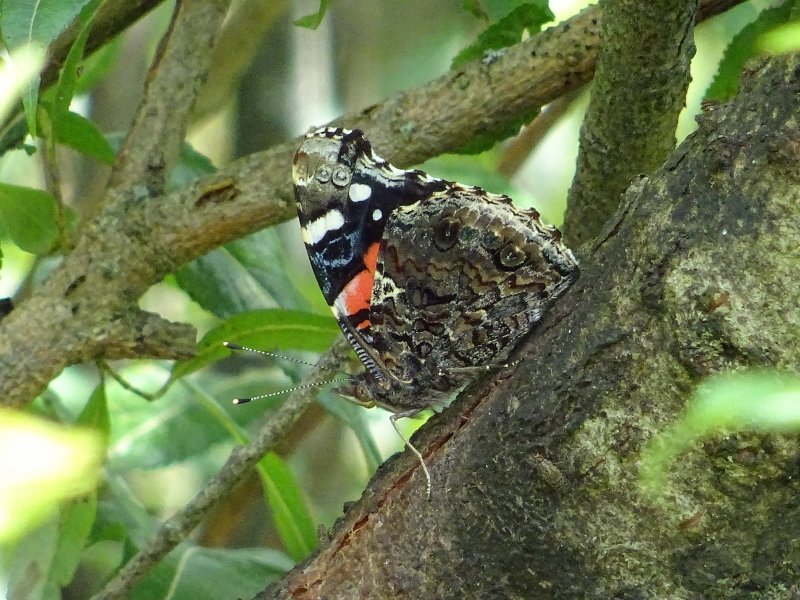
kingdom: Animalia
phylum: Arthropoda
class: Insecta
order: Lepidoptera
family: Nymphalidae
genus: Vanessa
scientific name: Vanessa atalanta
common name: Red Admiral
